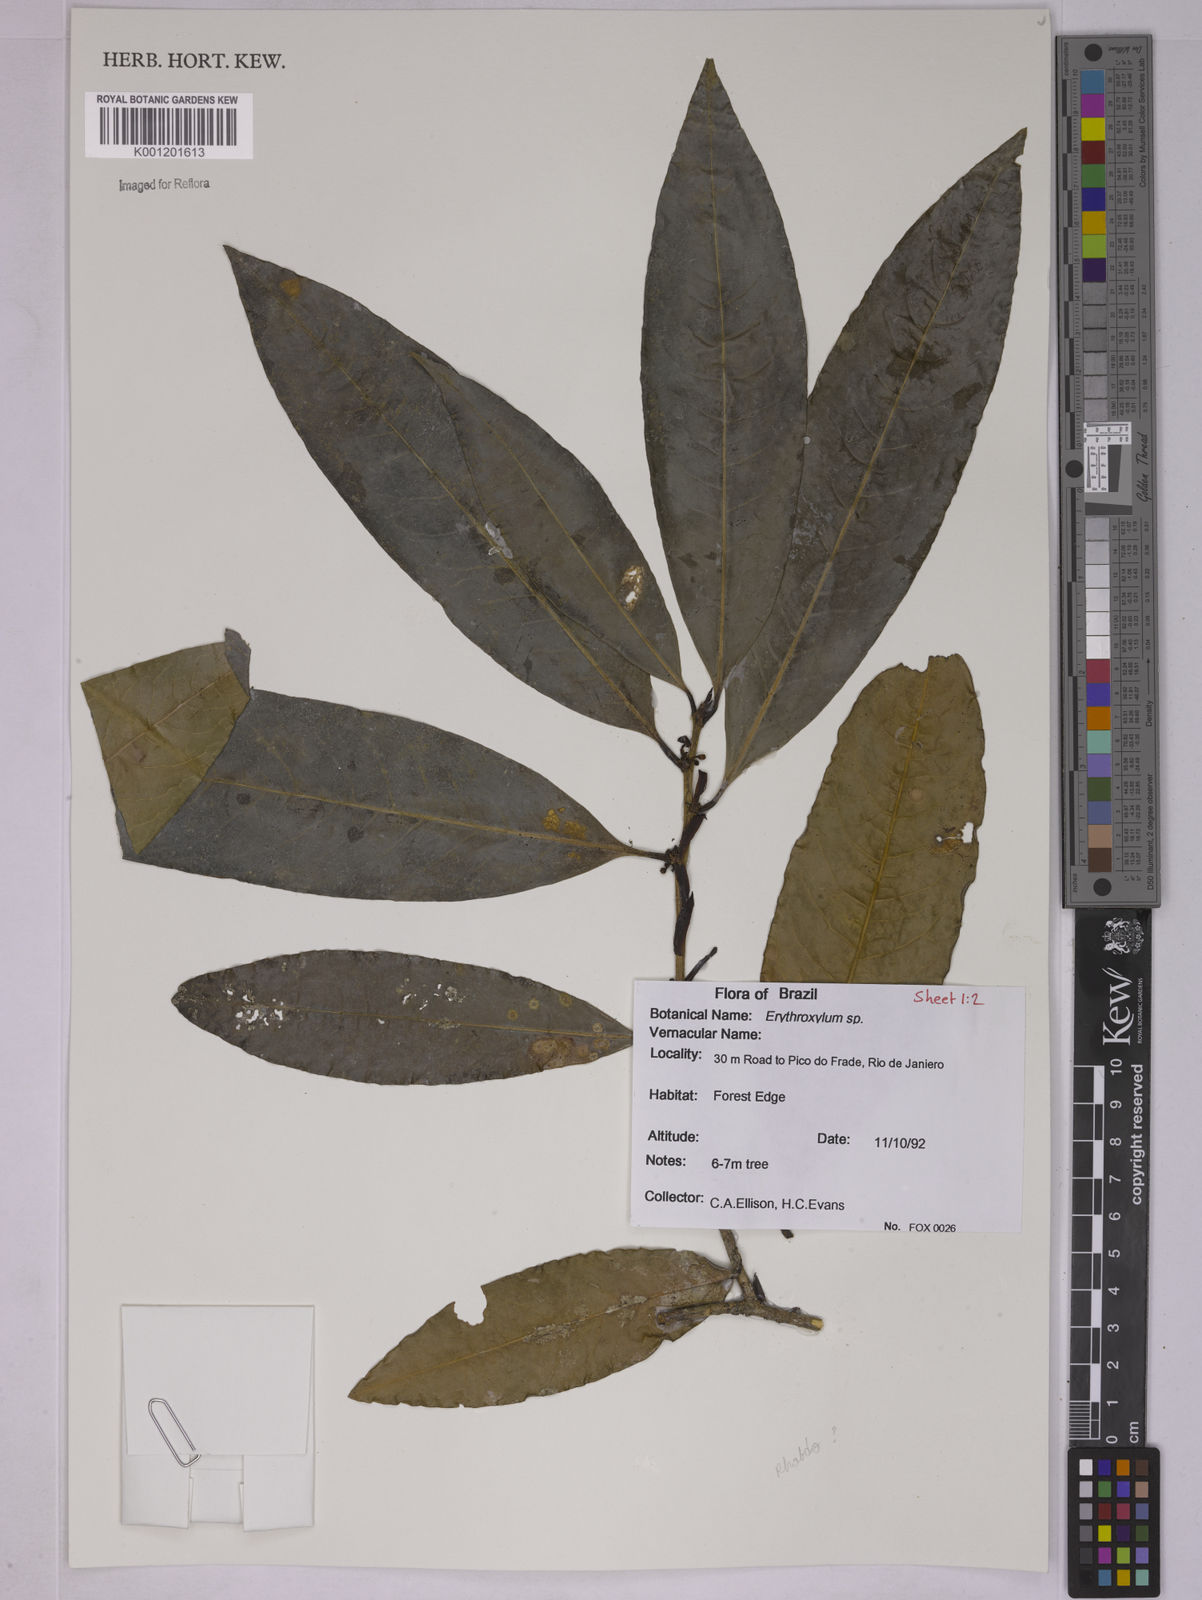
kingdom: Plantae
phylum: Tracheophyta
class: Magnoliopsida
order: Malpighiales
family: Erythroxylaceae
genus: Erythroxylum
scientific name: Erythroxylum
